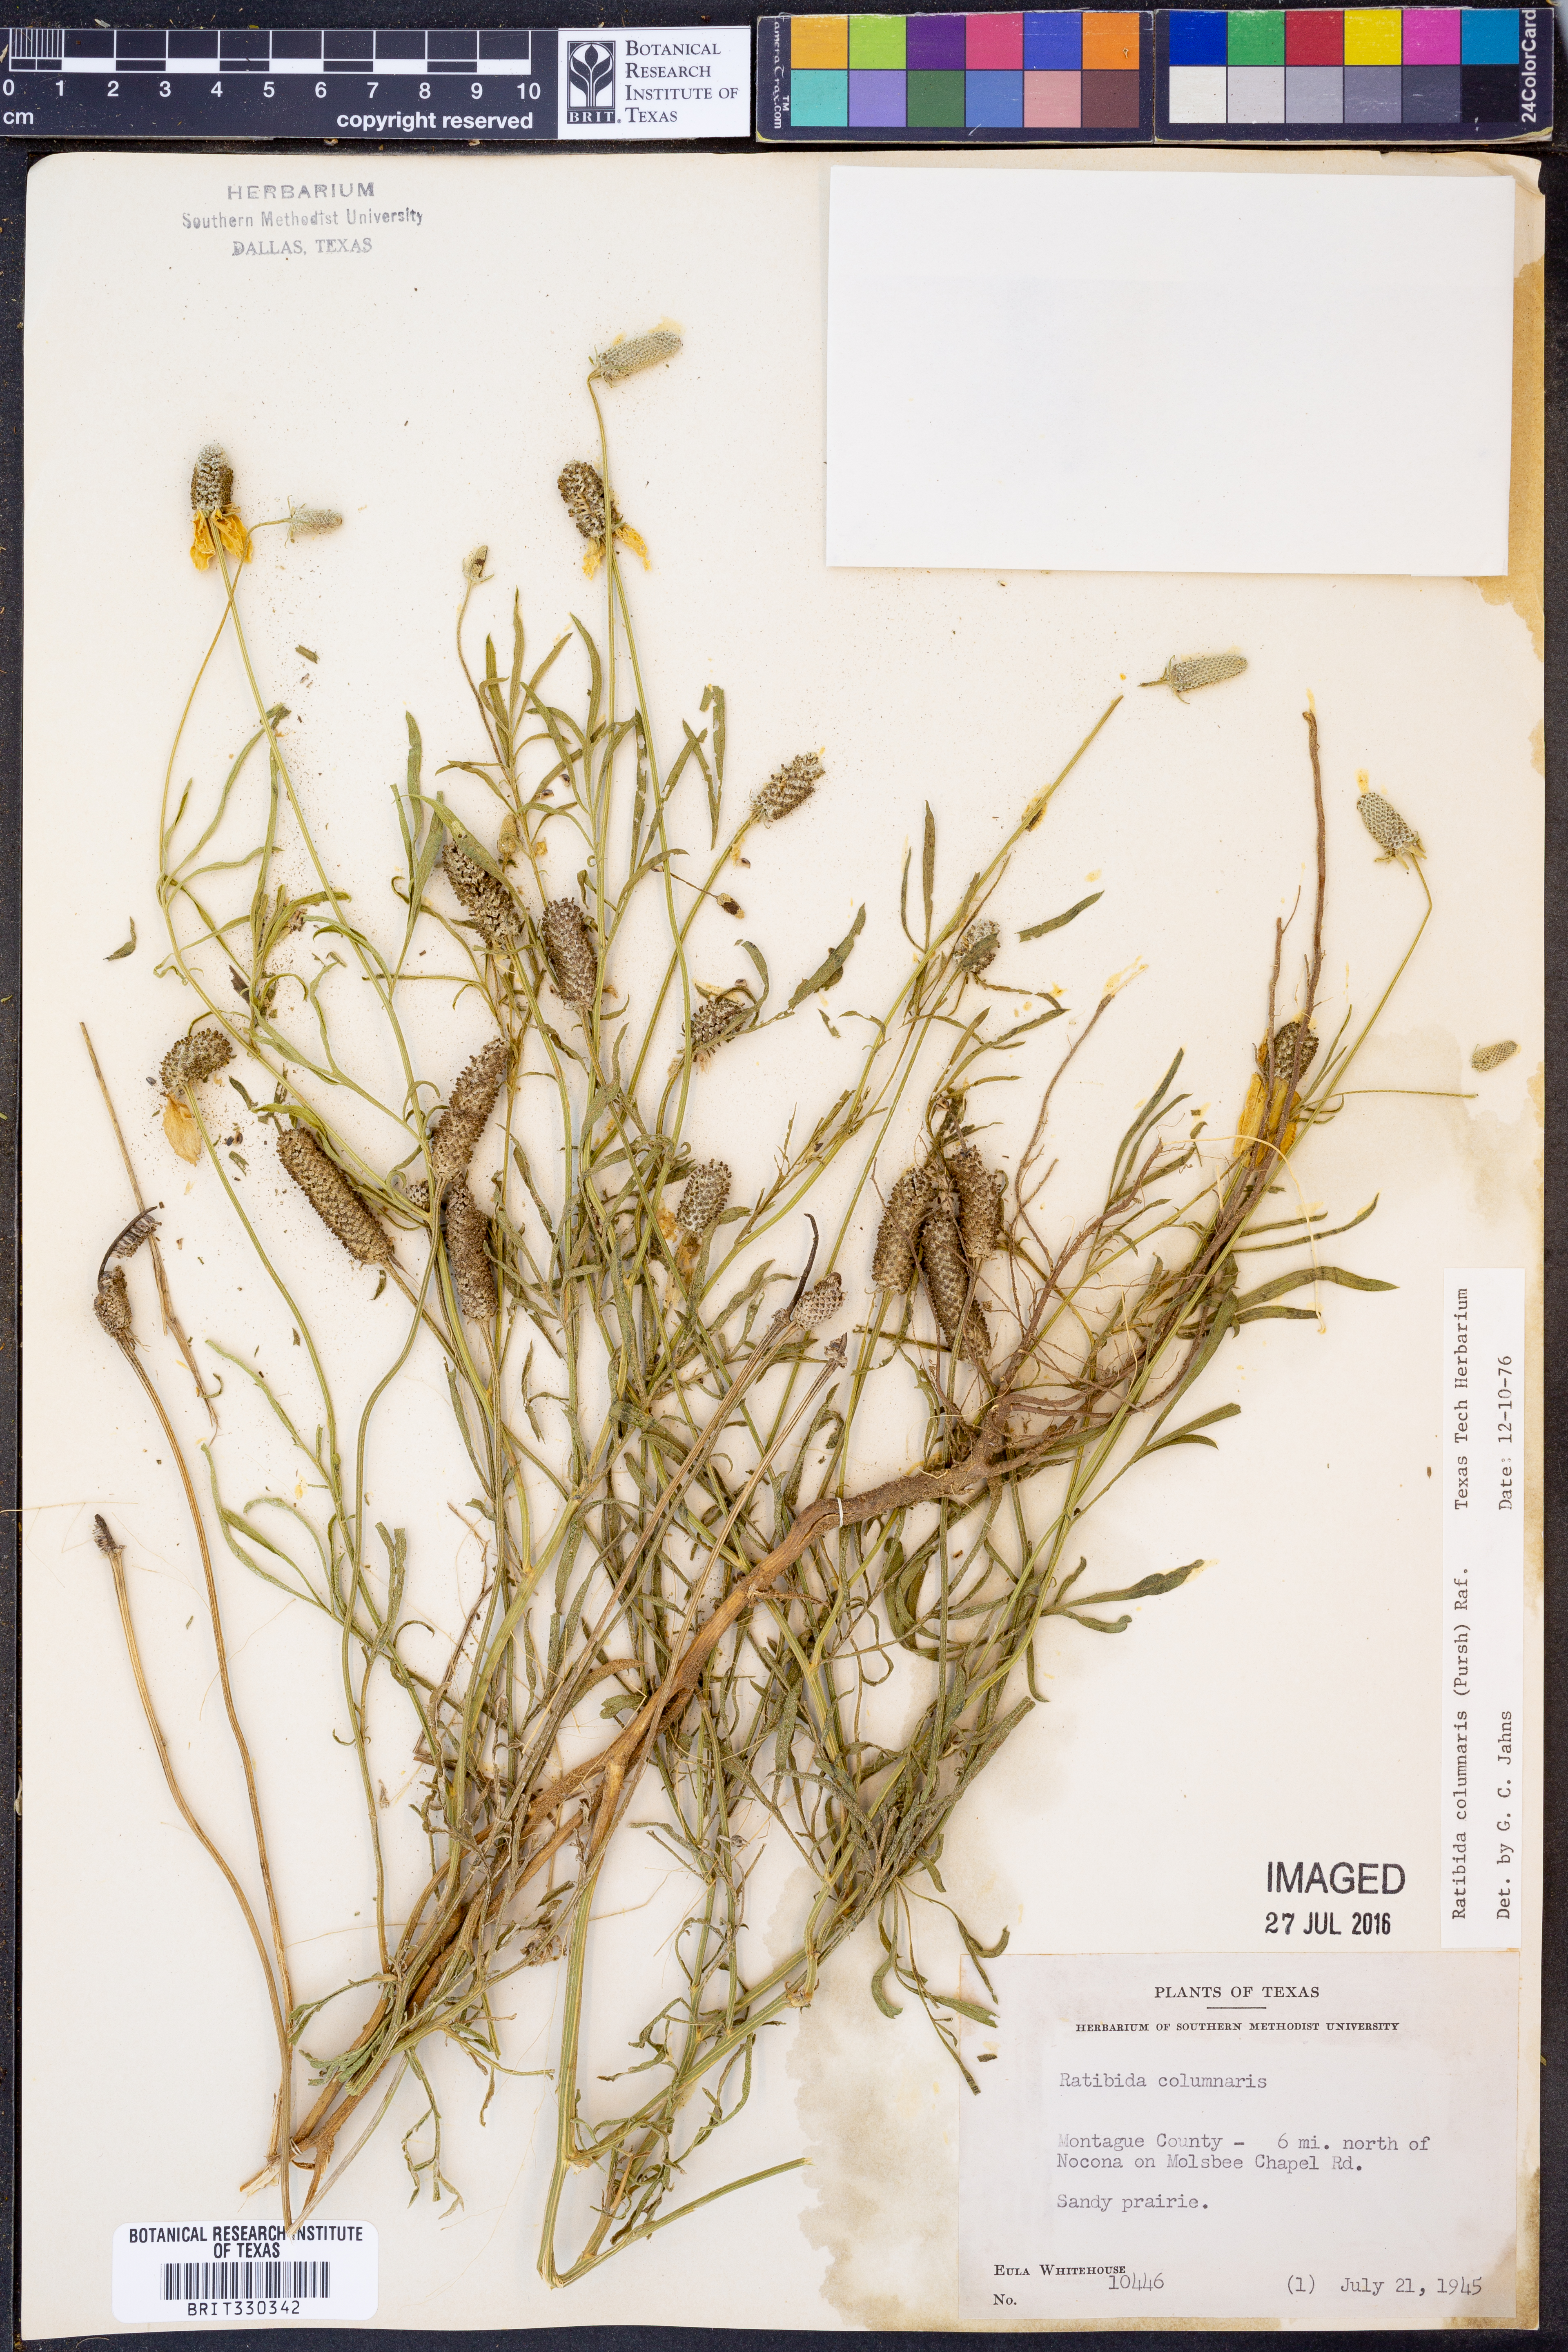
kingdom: Plantae
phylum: Tracheophyta
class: Magnoliopsida
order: Asterales
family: Asteraceae
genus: Ratibida
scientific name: Ratibida columnifera
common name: Prairie coneflower
